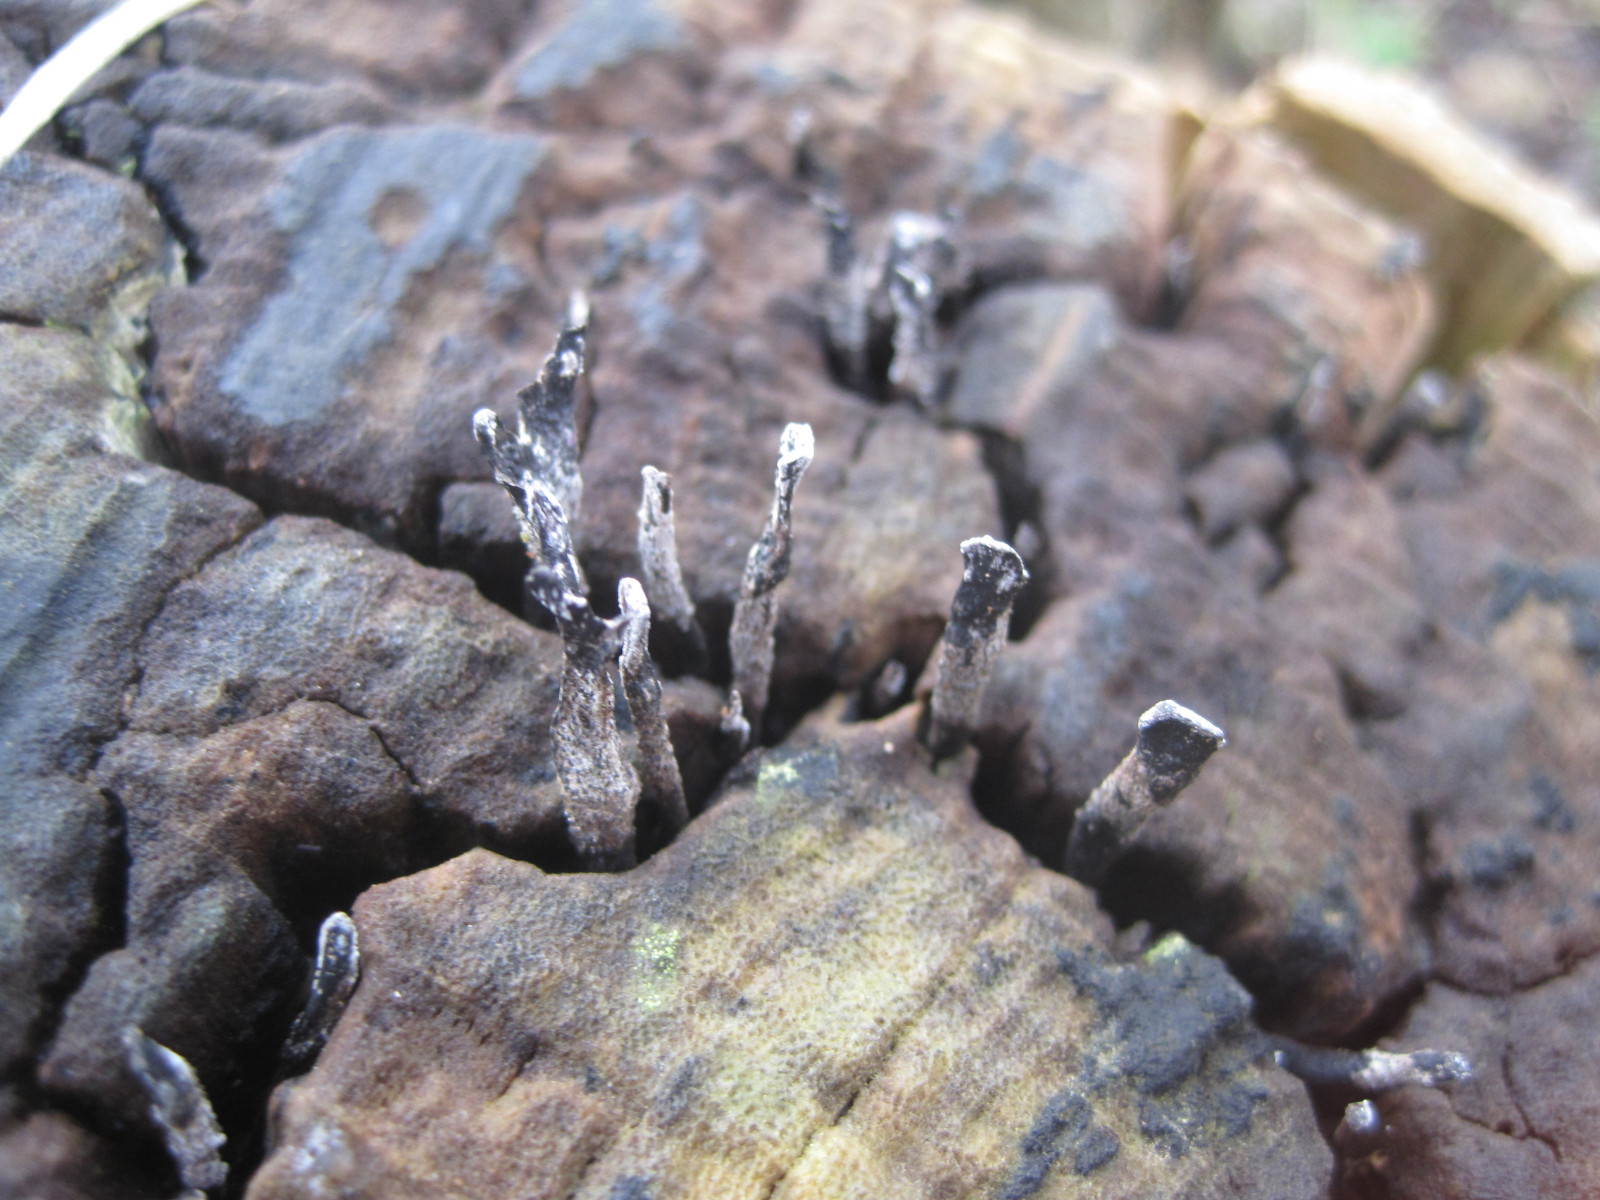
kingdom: Fungi
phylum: Ascomycota
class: Sordariomycetes
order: Xylariales
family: Xylariaceae
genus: Xylaria
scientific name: Xylaria hypoxylon
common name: grenet stødsvamp
